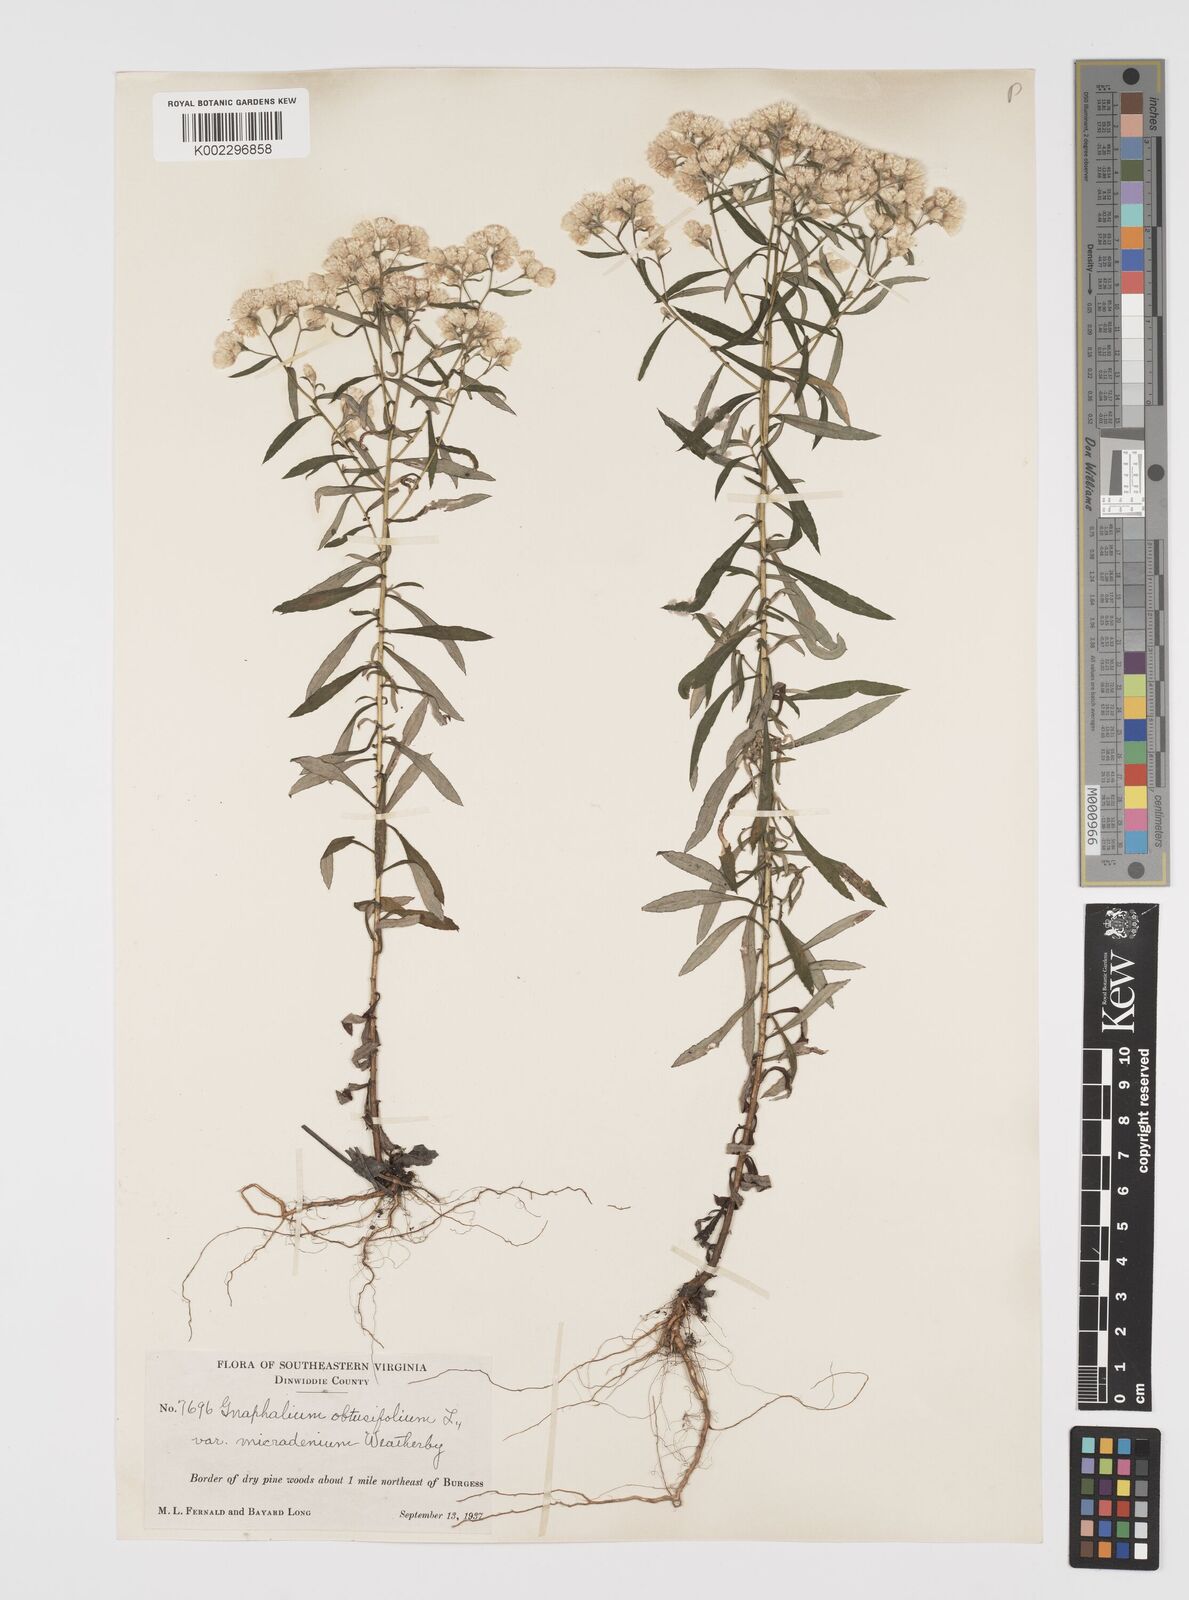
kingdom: Plantae
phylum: Tracheophyta
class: Magnoliopsida
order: Asterales
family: Asteraceae
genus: Pseudognaphalium
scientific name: Pseudognaphalium helleri
